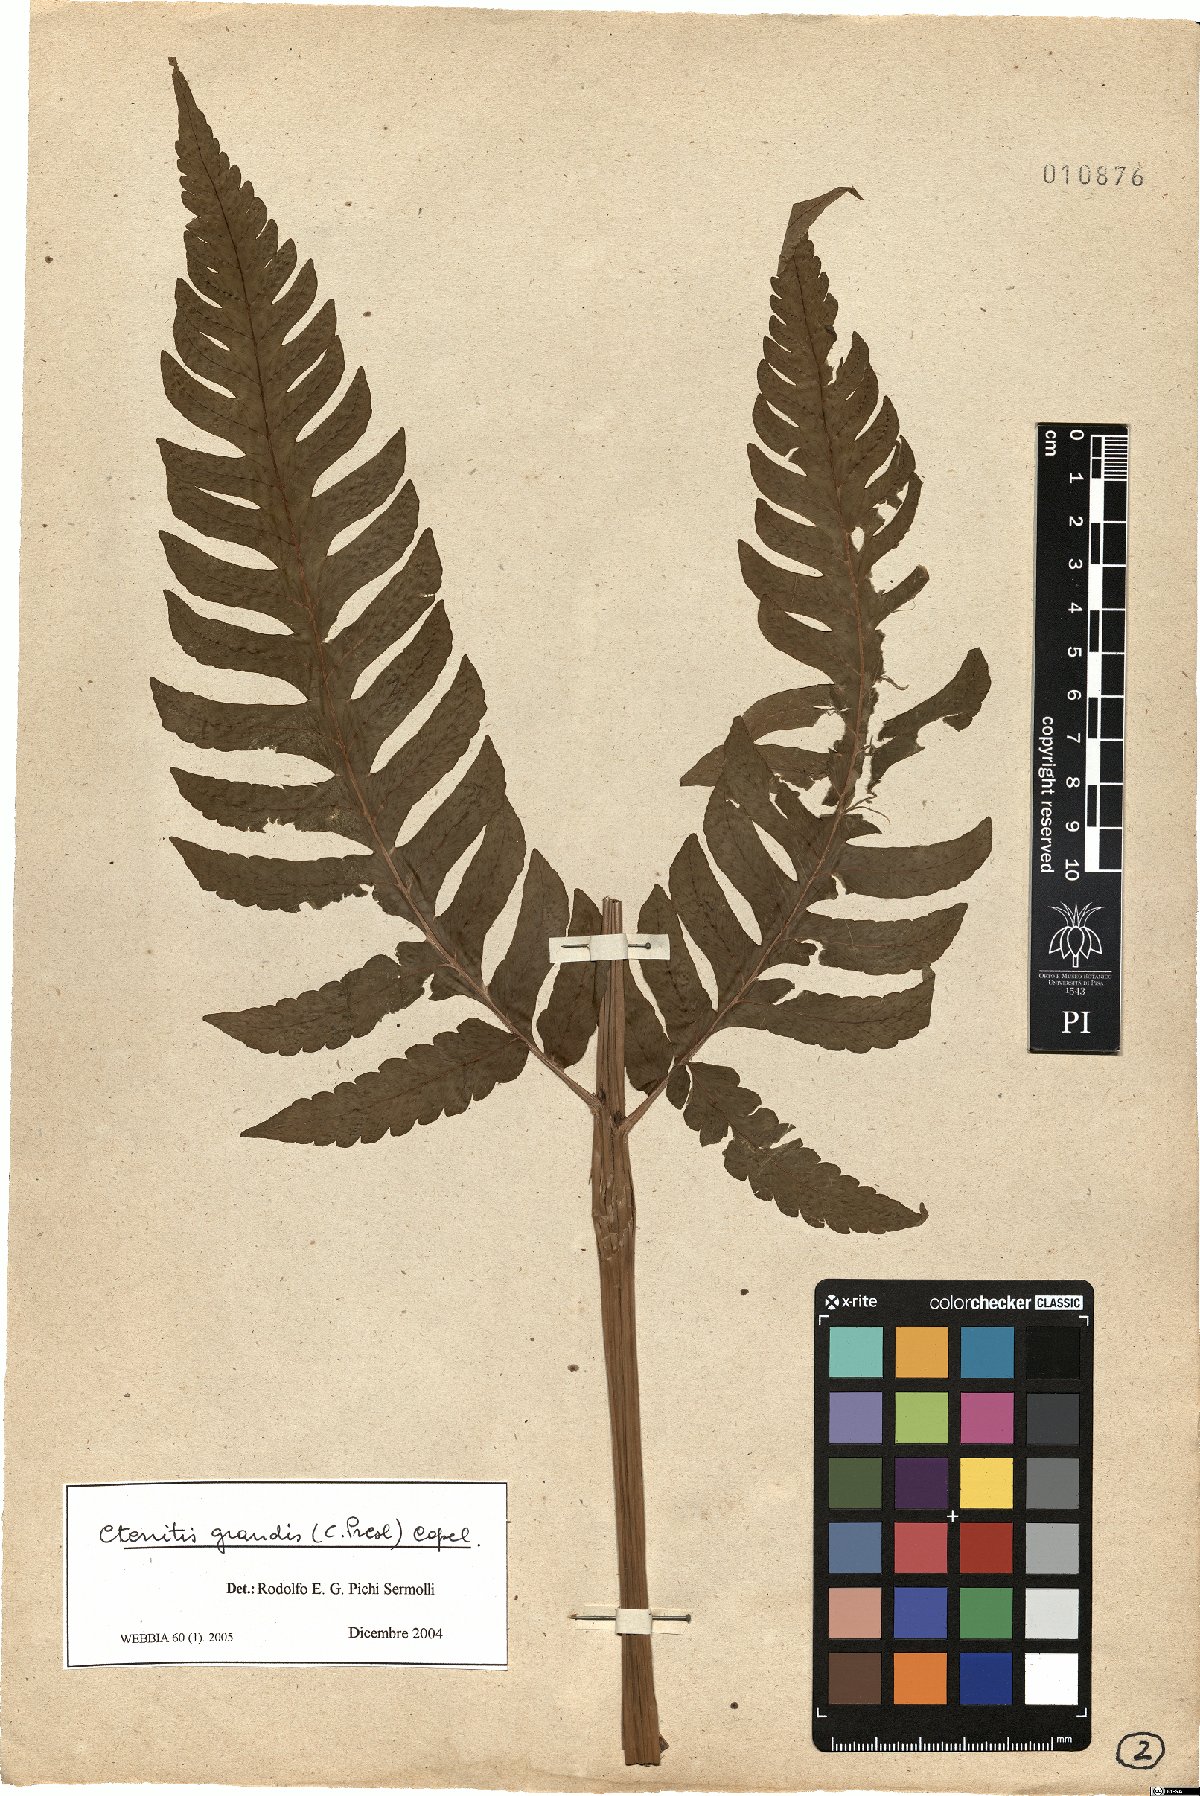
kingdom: Plantae
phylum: Tracheophyta
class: Polypodiopsida
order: Polypodiales
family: Dryopteridaceae
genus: Megalastrum
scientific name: Megalastrum grande
